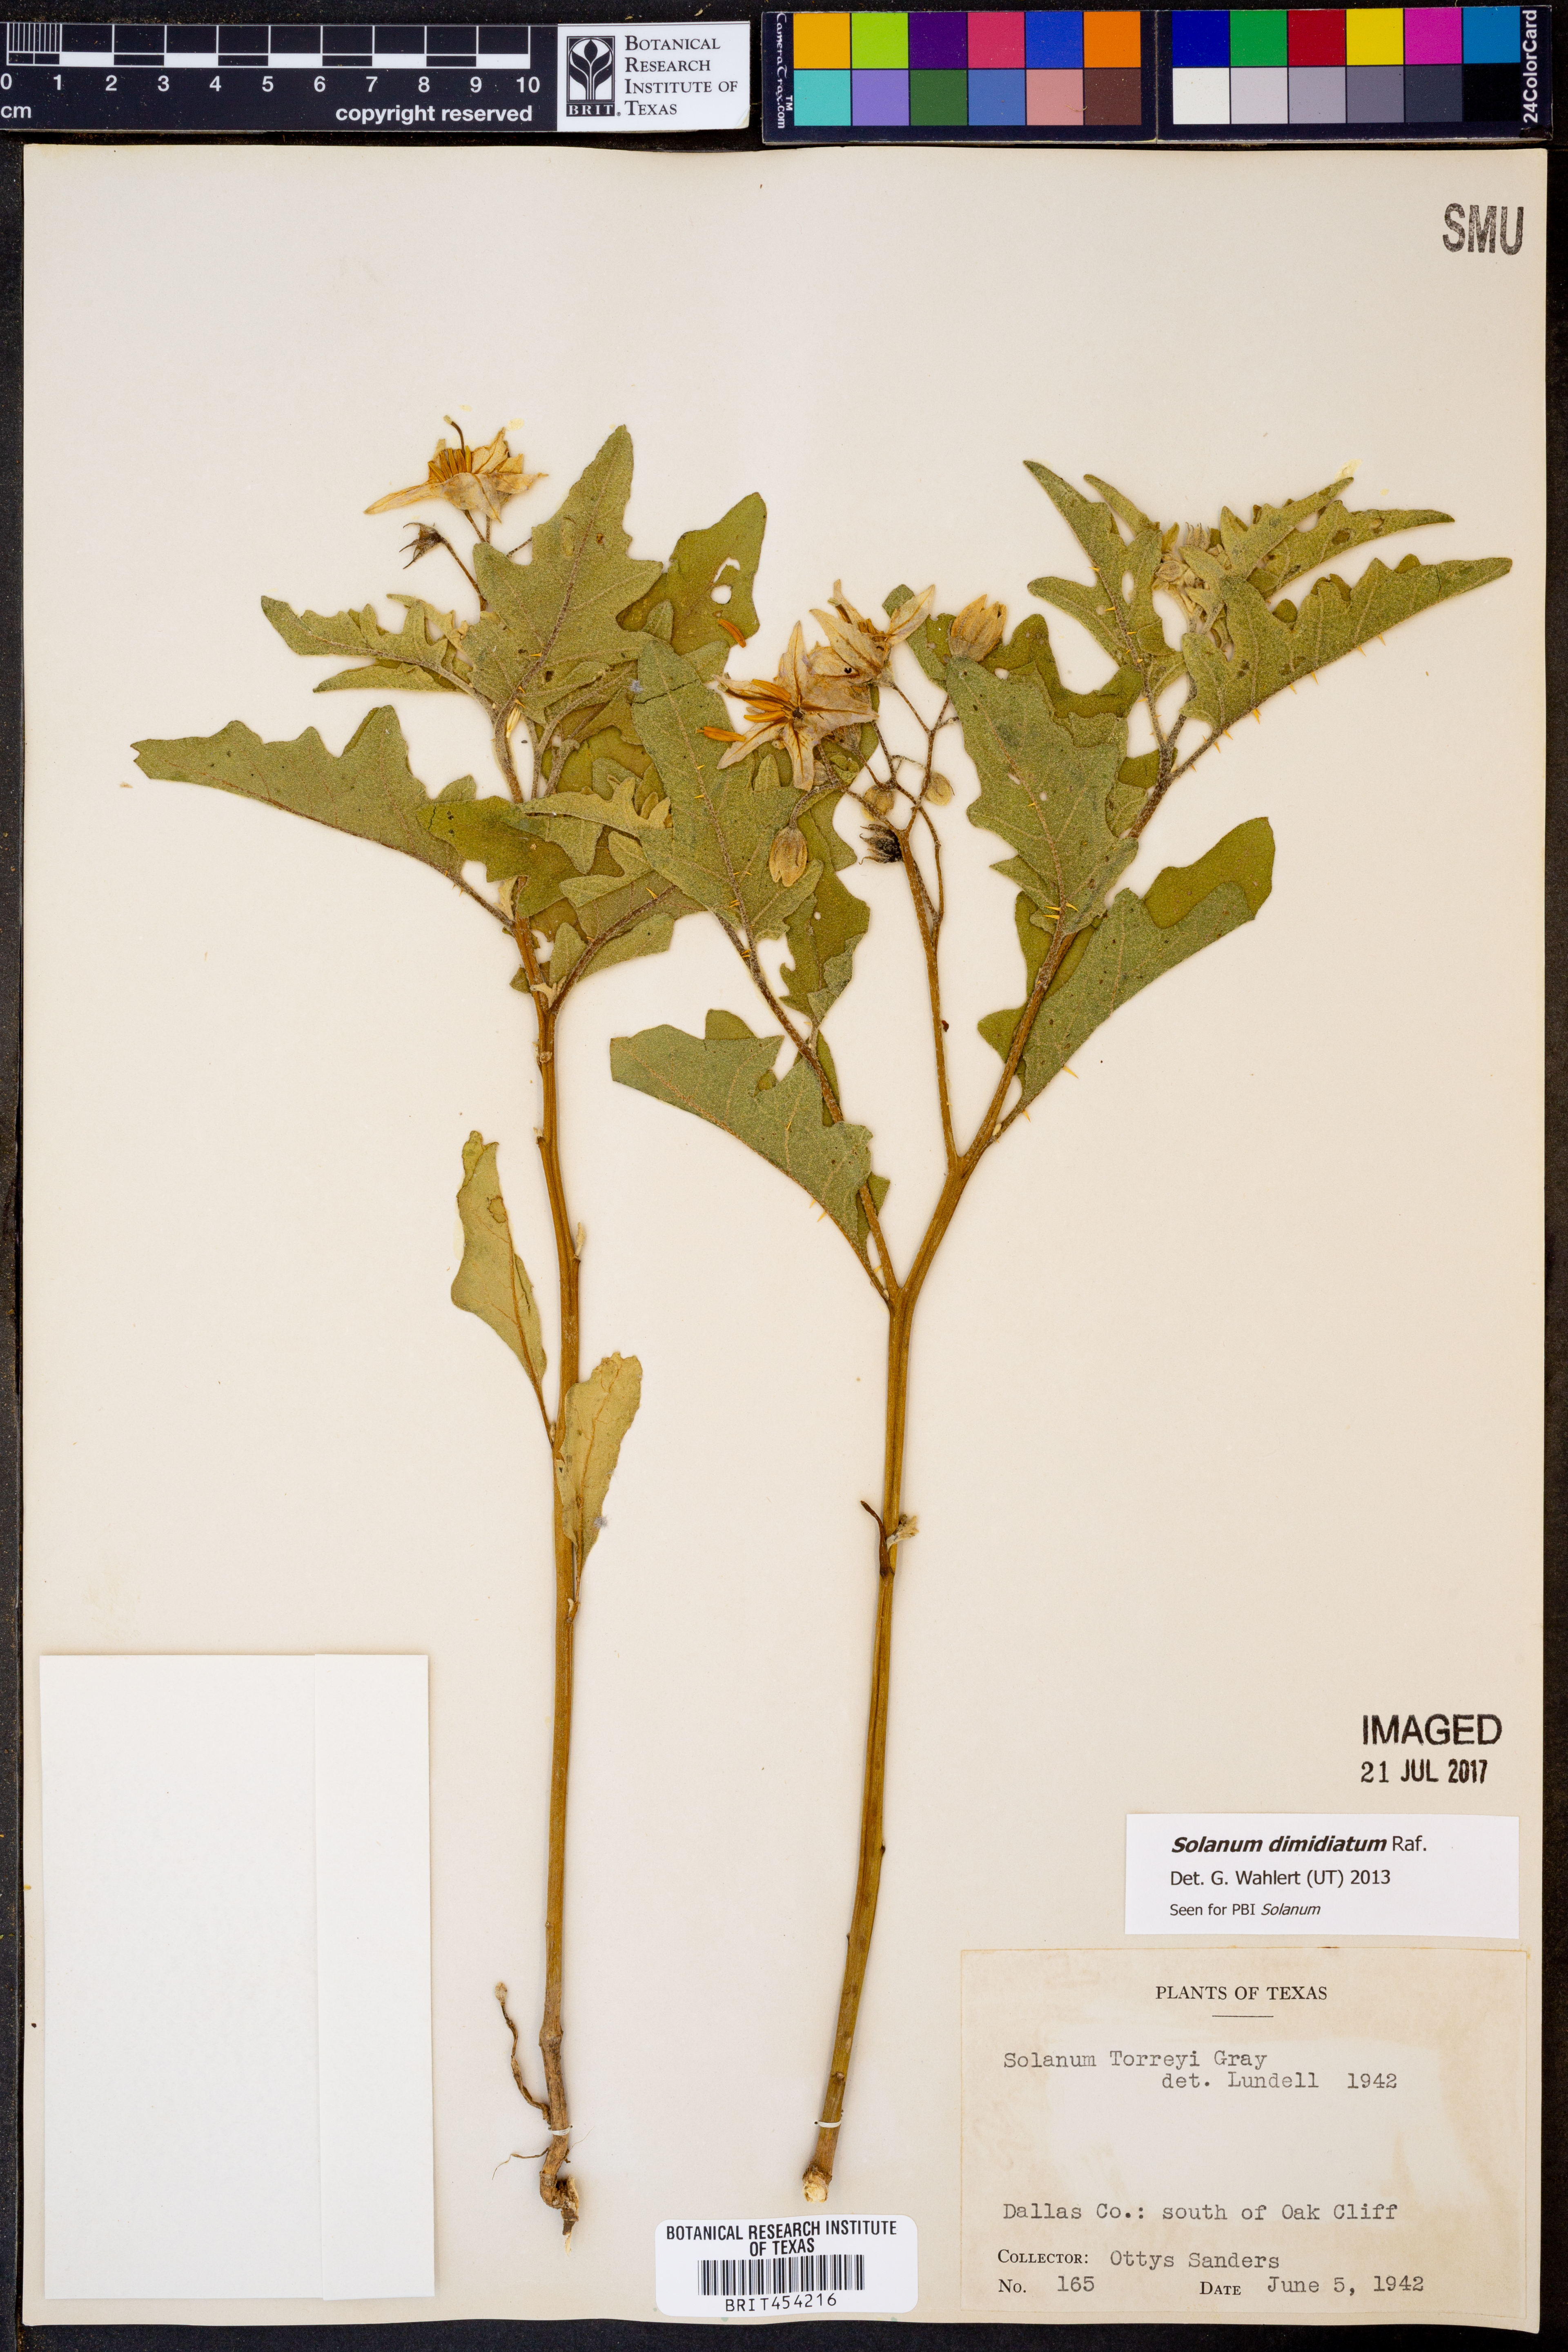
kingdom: Plantae
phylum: Tracheophyta
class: Magnoliopsida
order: Solanales
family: Solanaceae
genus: Solanum
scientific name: Solanum dimidiatum
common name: Carolina horse-nettle
